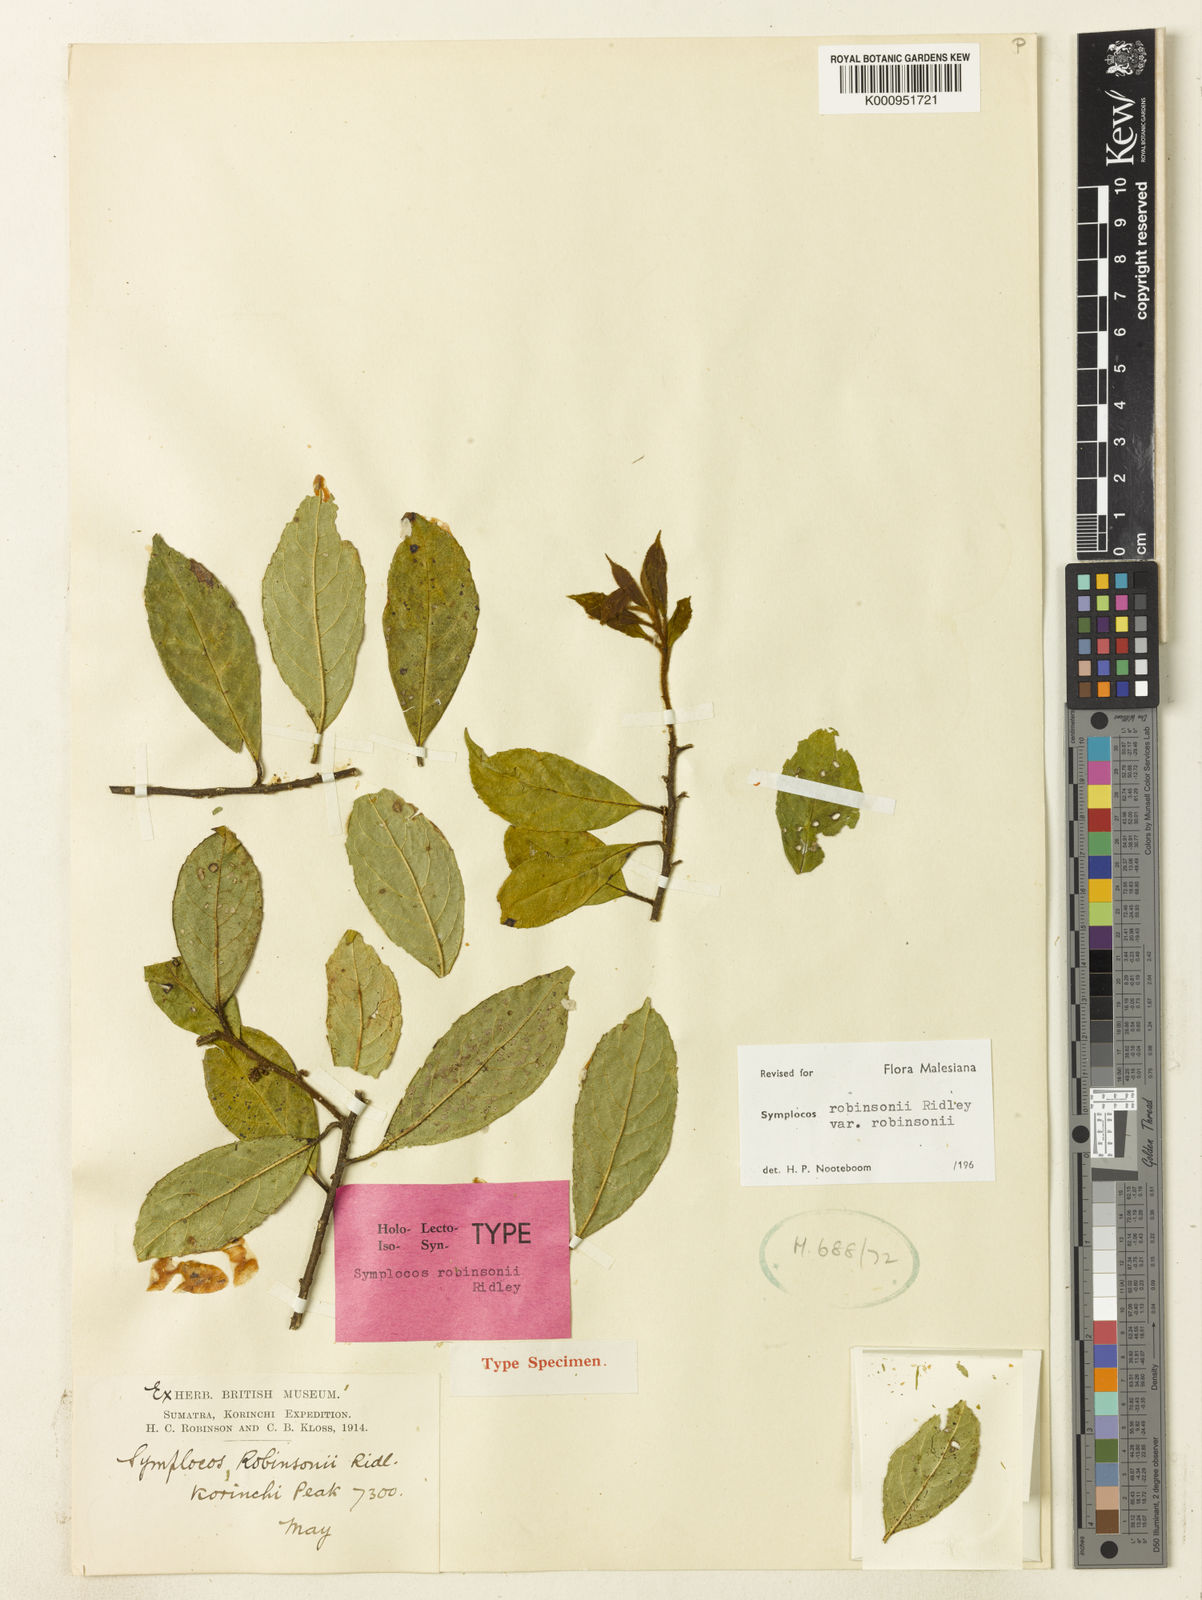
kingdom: Plantae
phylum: Tracheophyta
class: Magnoliopsida
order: Ericales
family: Symplocaceae
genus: Symplocos
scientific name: Symplocos robinsonii
